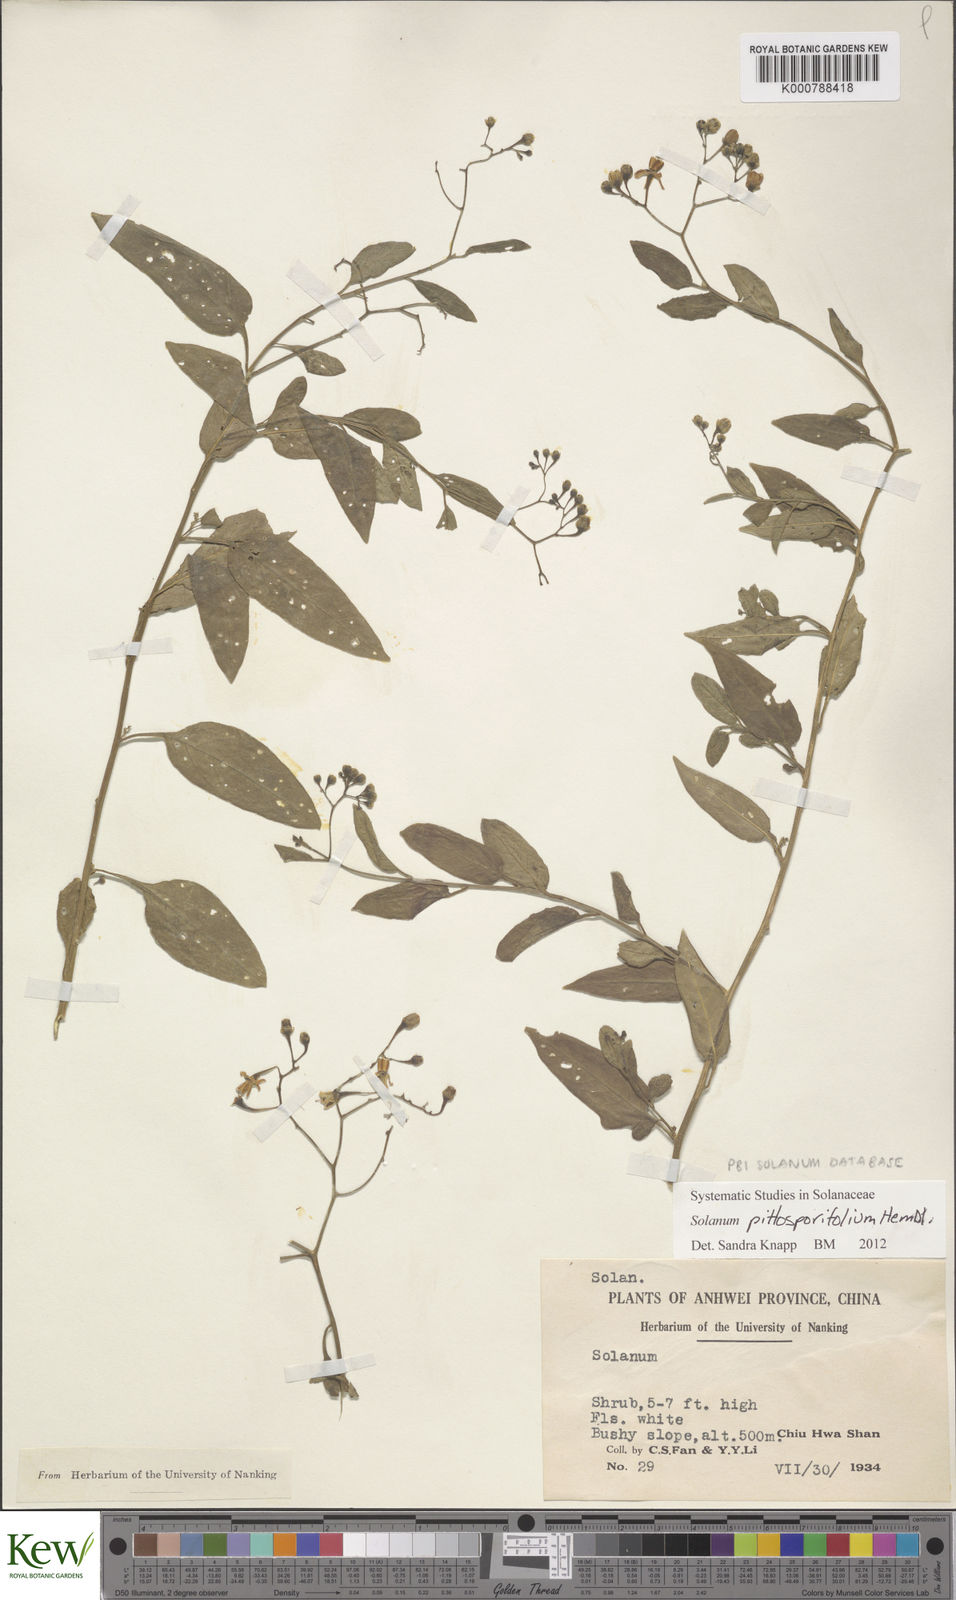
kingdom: Plantae
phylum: Tracheophyta
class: Magnoliopsida
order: Solanales
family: Solanaceae
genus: Solanum
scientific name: Solanum pittosporifolium
